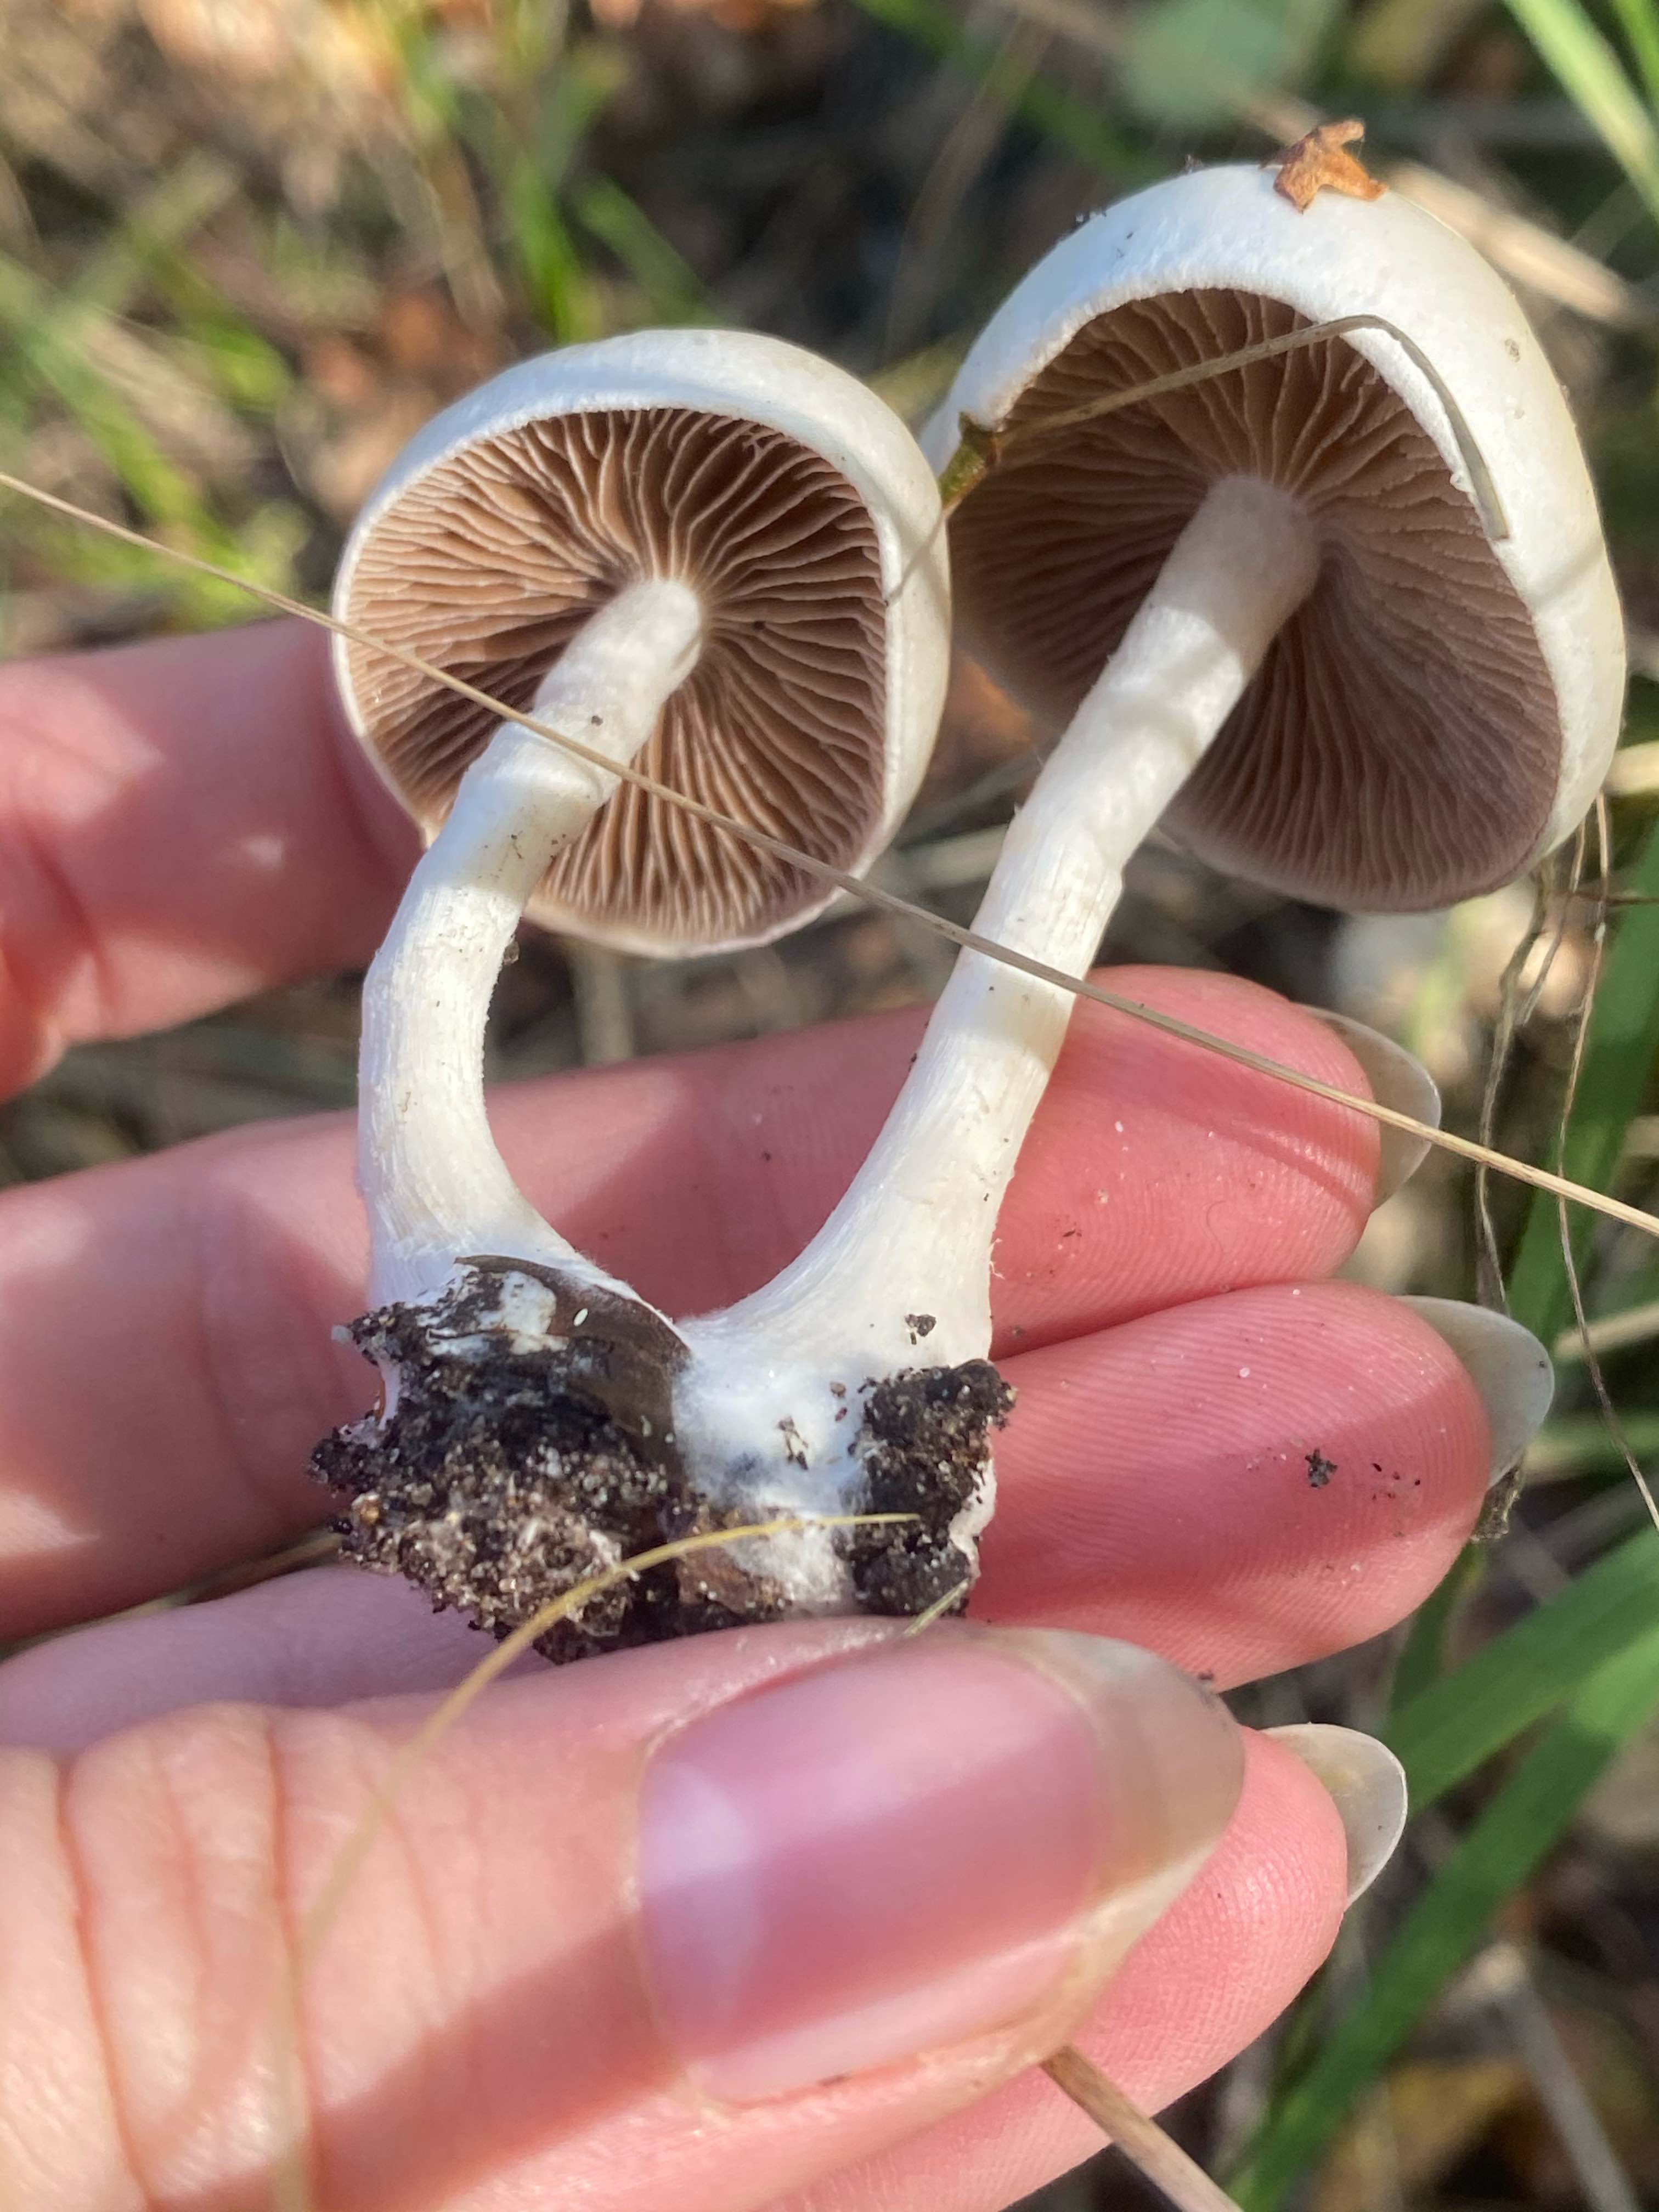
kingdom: Fungi
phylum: Basidiomycota
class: Agaricomycetes
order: Agaricales
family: Hymenogastraceae
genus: Hebeloma
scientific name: Hebeloma
